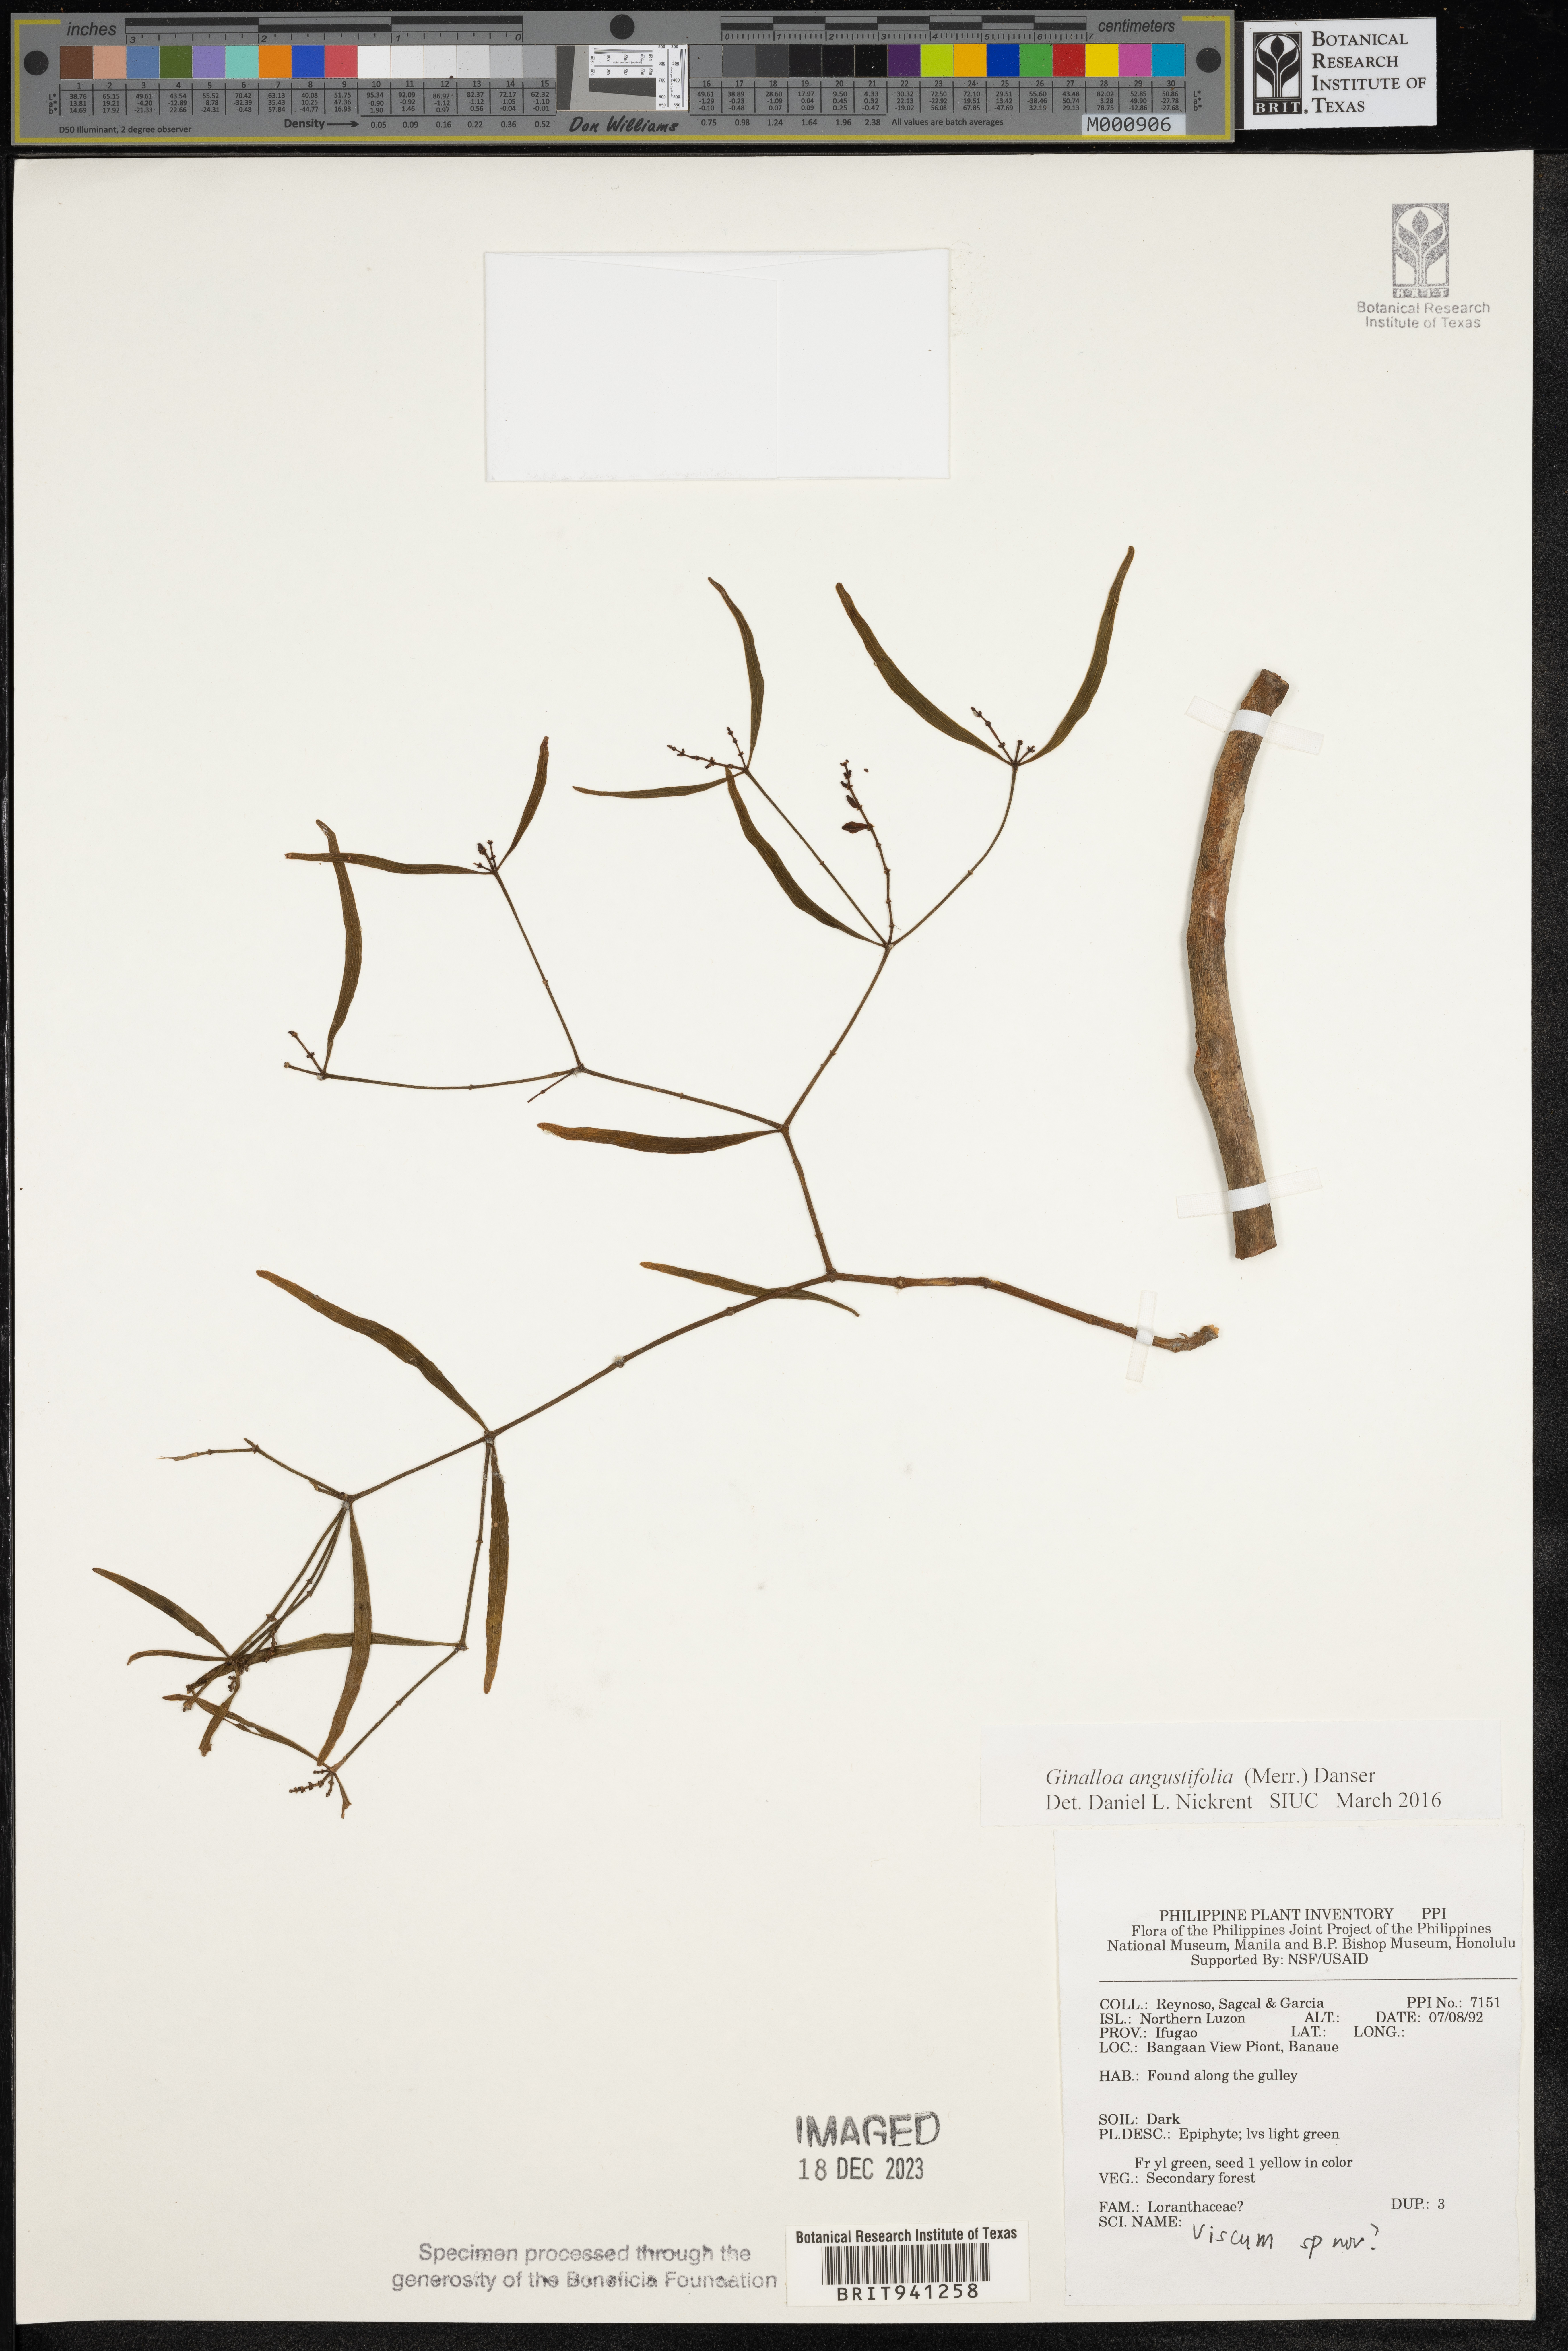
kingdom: Plantae
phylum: Tracheophyta
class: Magnoliopsida
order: Santalales
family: Viscaceae
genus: Ginalloa
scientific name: Ginalloa
